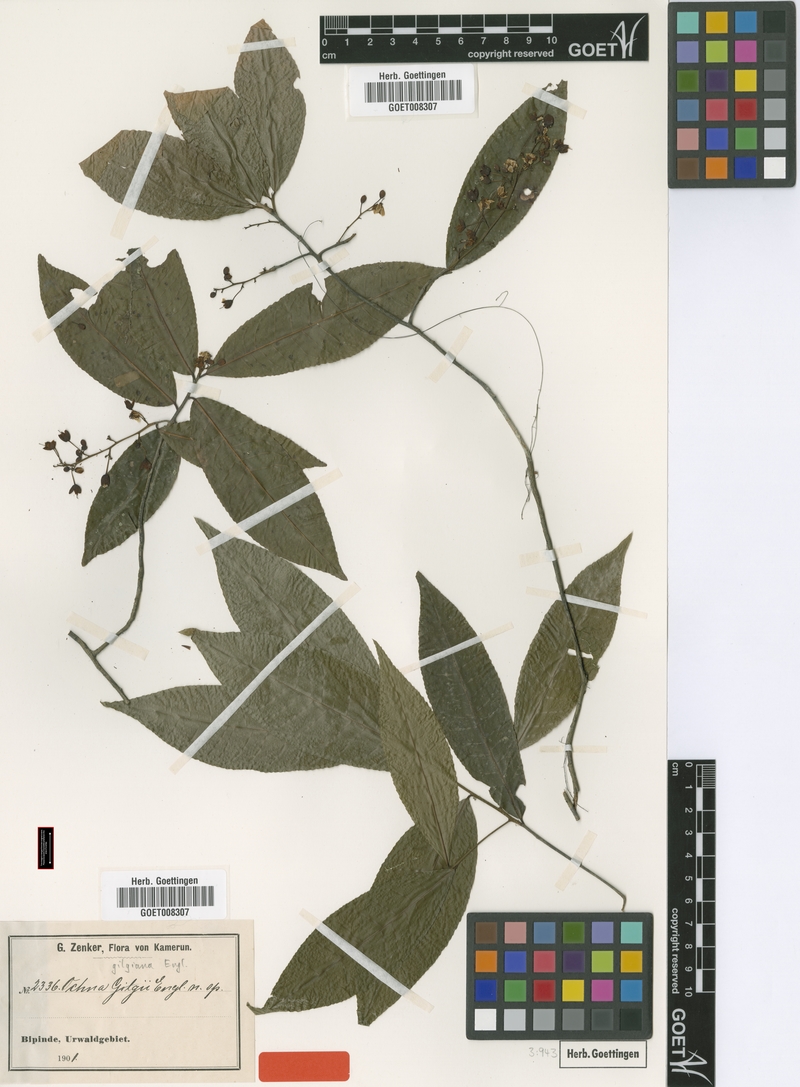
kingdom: Plantae
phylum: Tracheophyta
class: Magnoliopsida
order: Malpighiales
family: Ochnaceae
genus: Ochna
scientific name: Ochna membranacea
